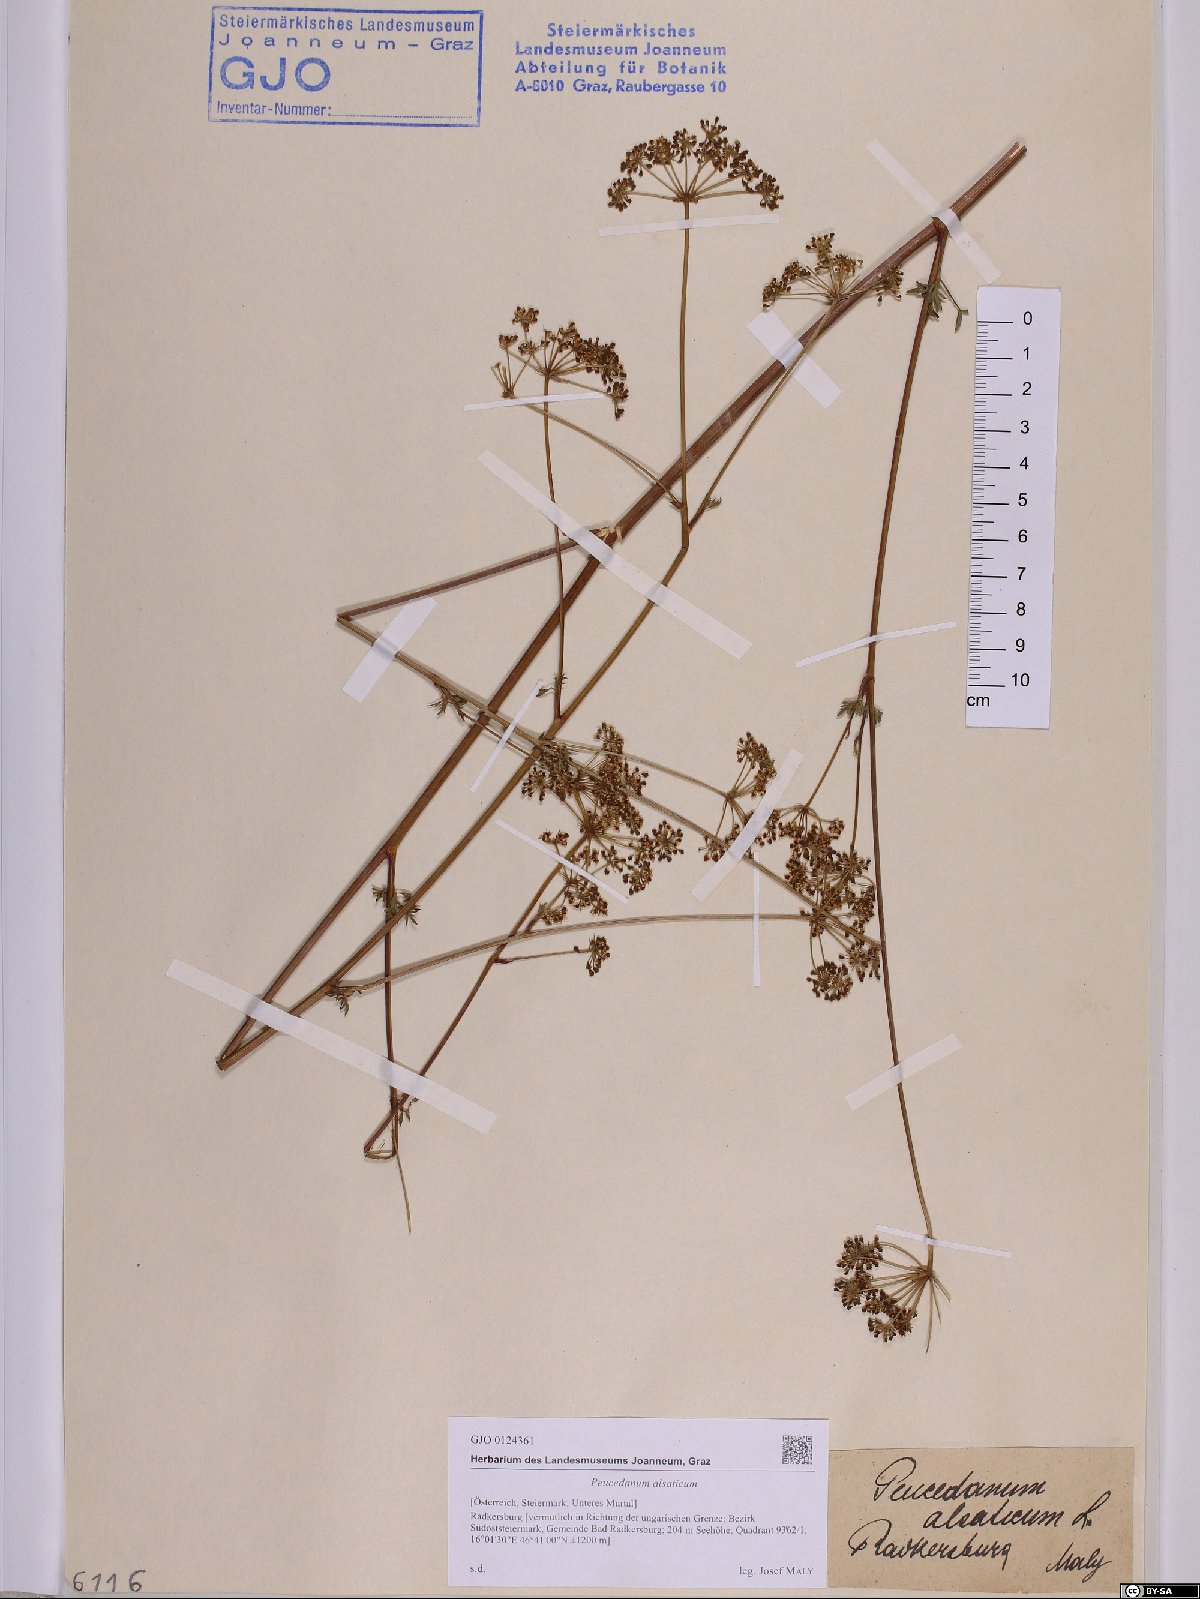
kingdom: Plantae
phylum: Tracheophyta
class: Magnoliopsida
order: Apiales
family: Apiaceae
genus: Xanthoselinum
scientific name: Xanthoselinum alsaticum
